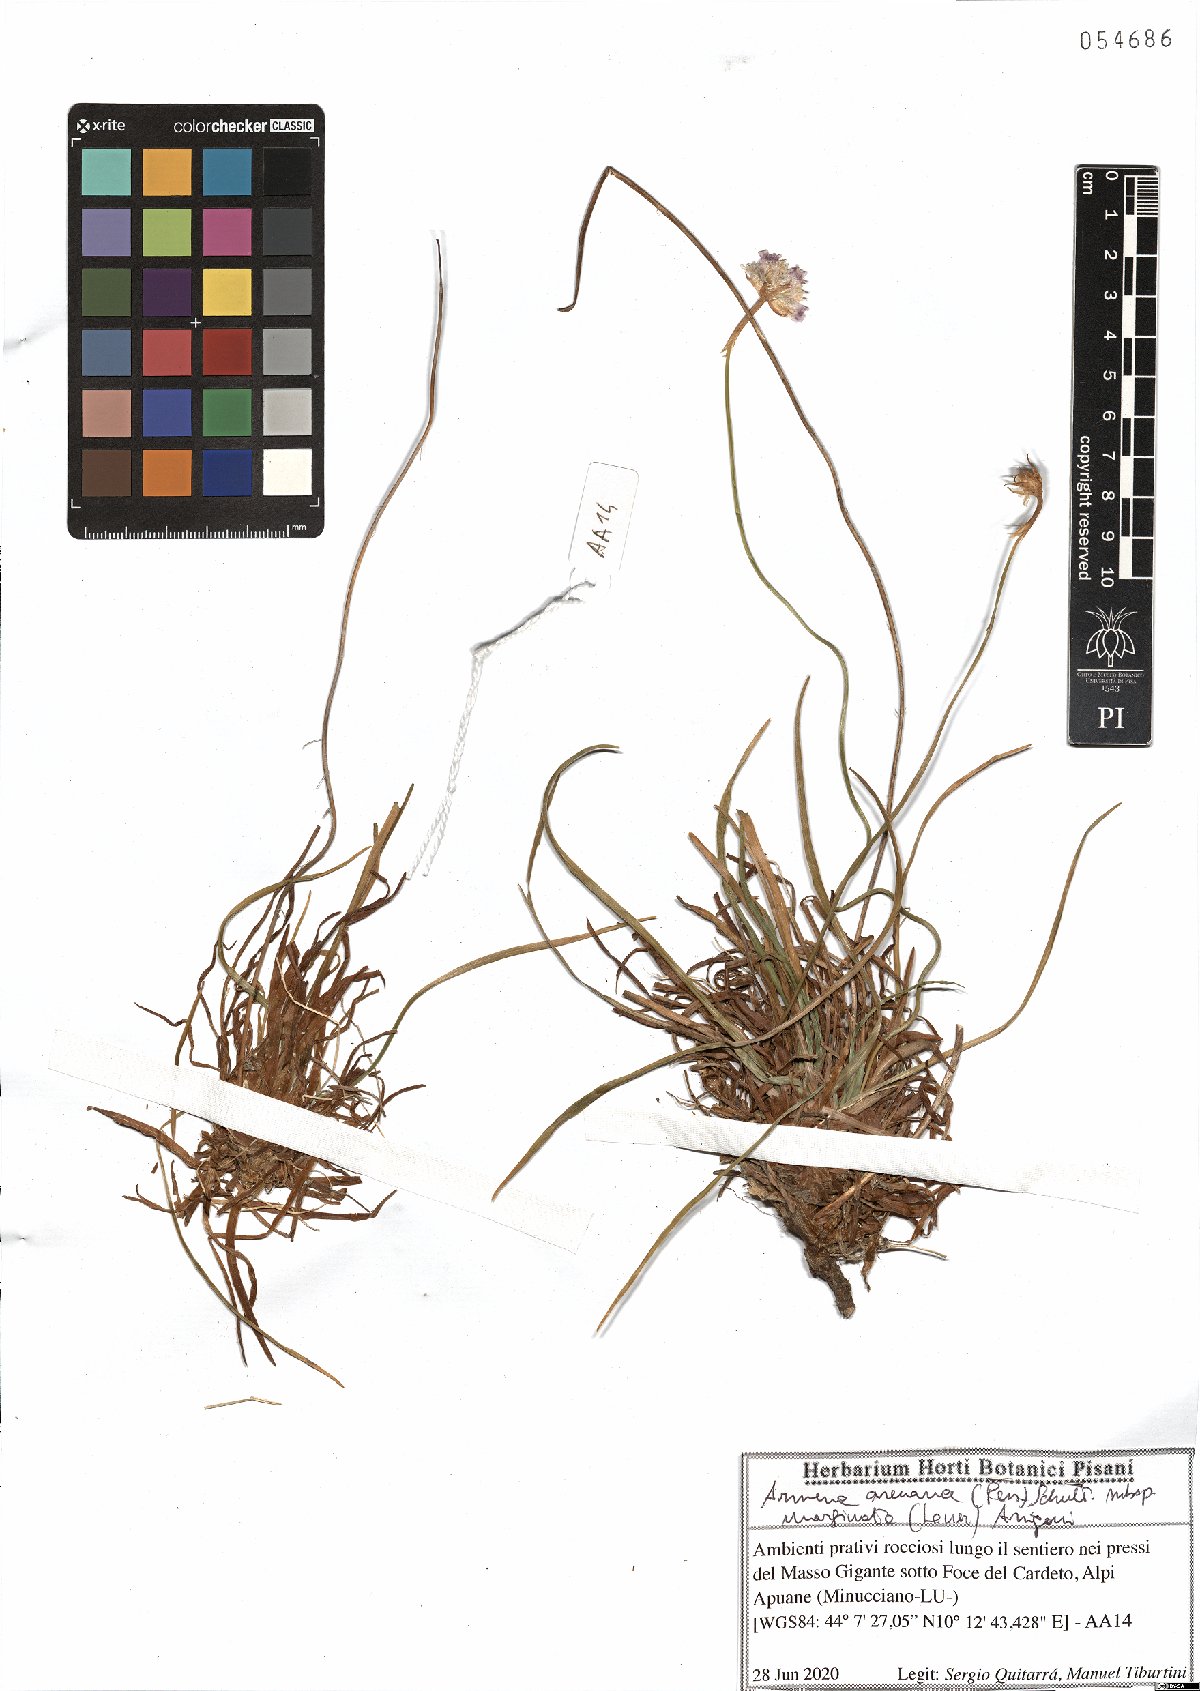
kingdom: Plantae
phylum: Tracheophyta
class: Magnoliopsida
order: Caryophyllales
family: Plumbaginaceae
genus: Armeria
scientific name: Armeria arenaria
